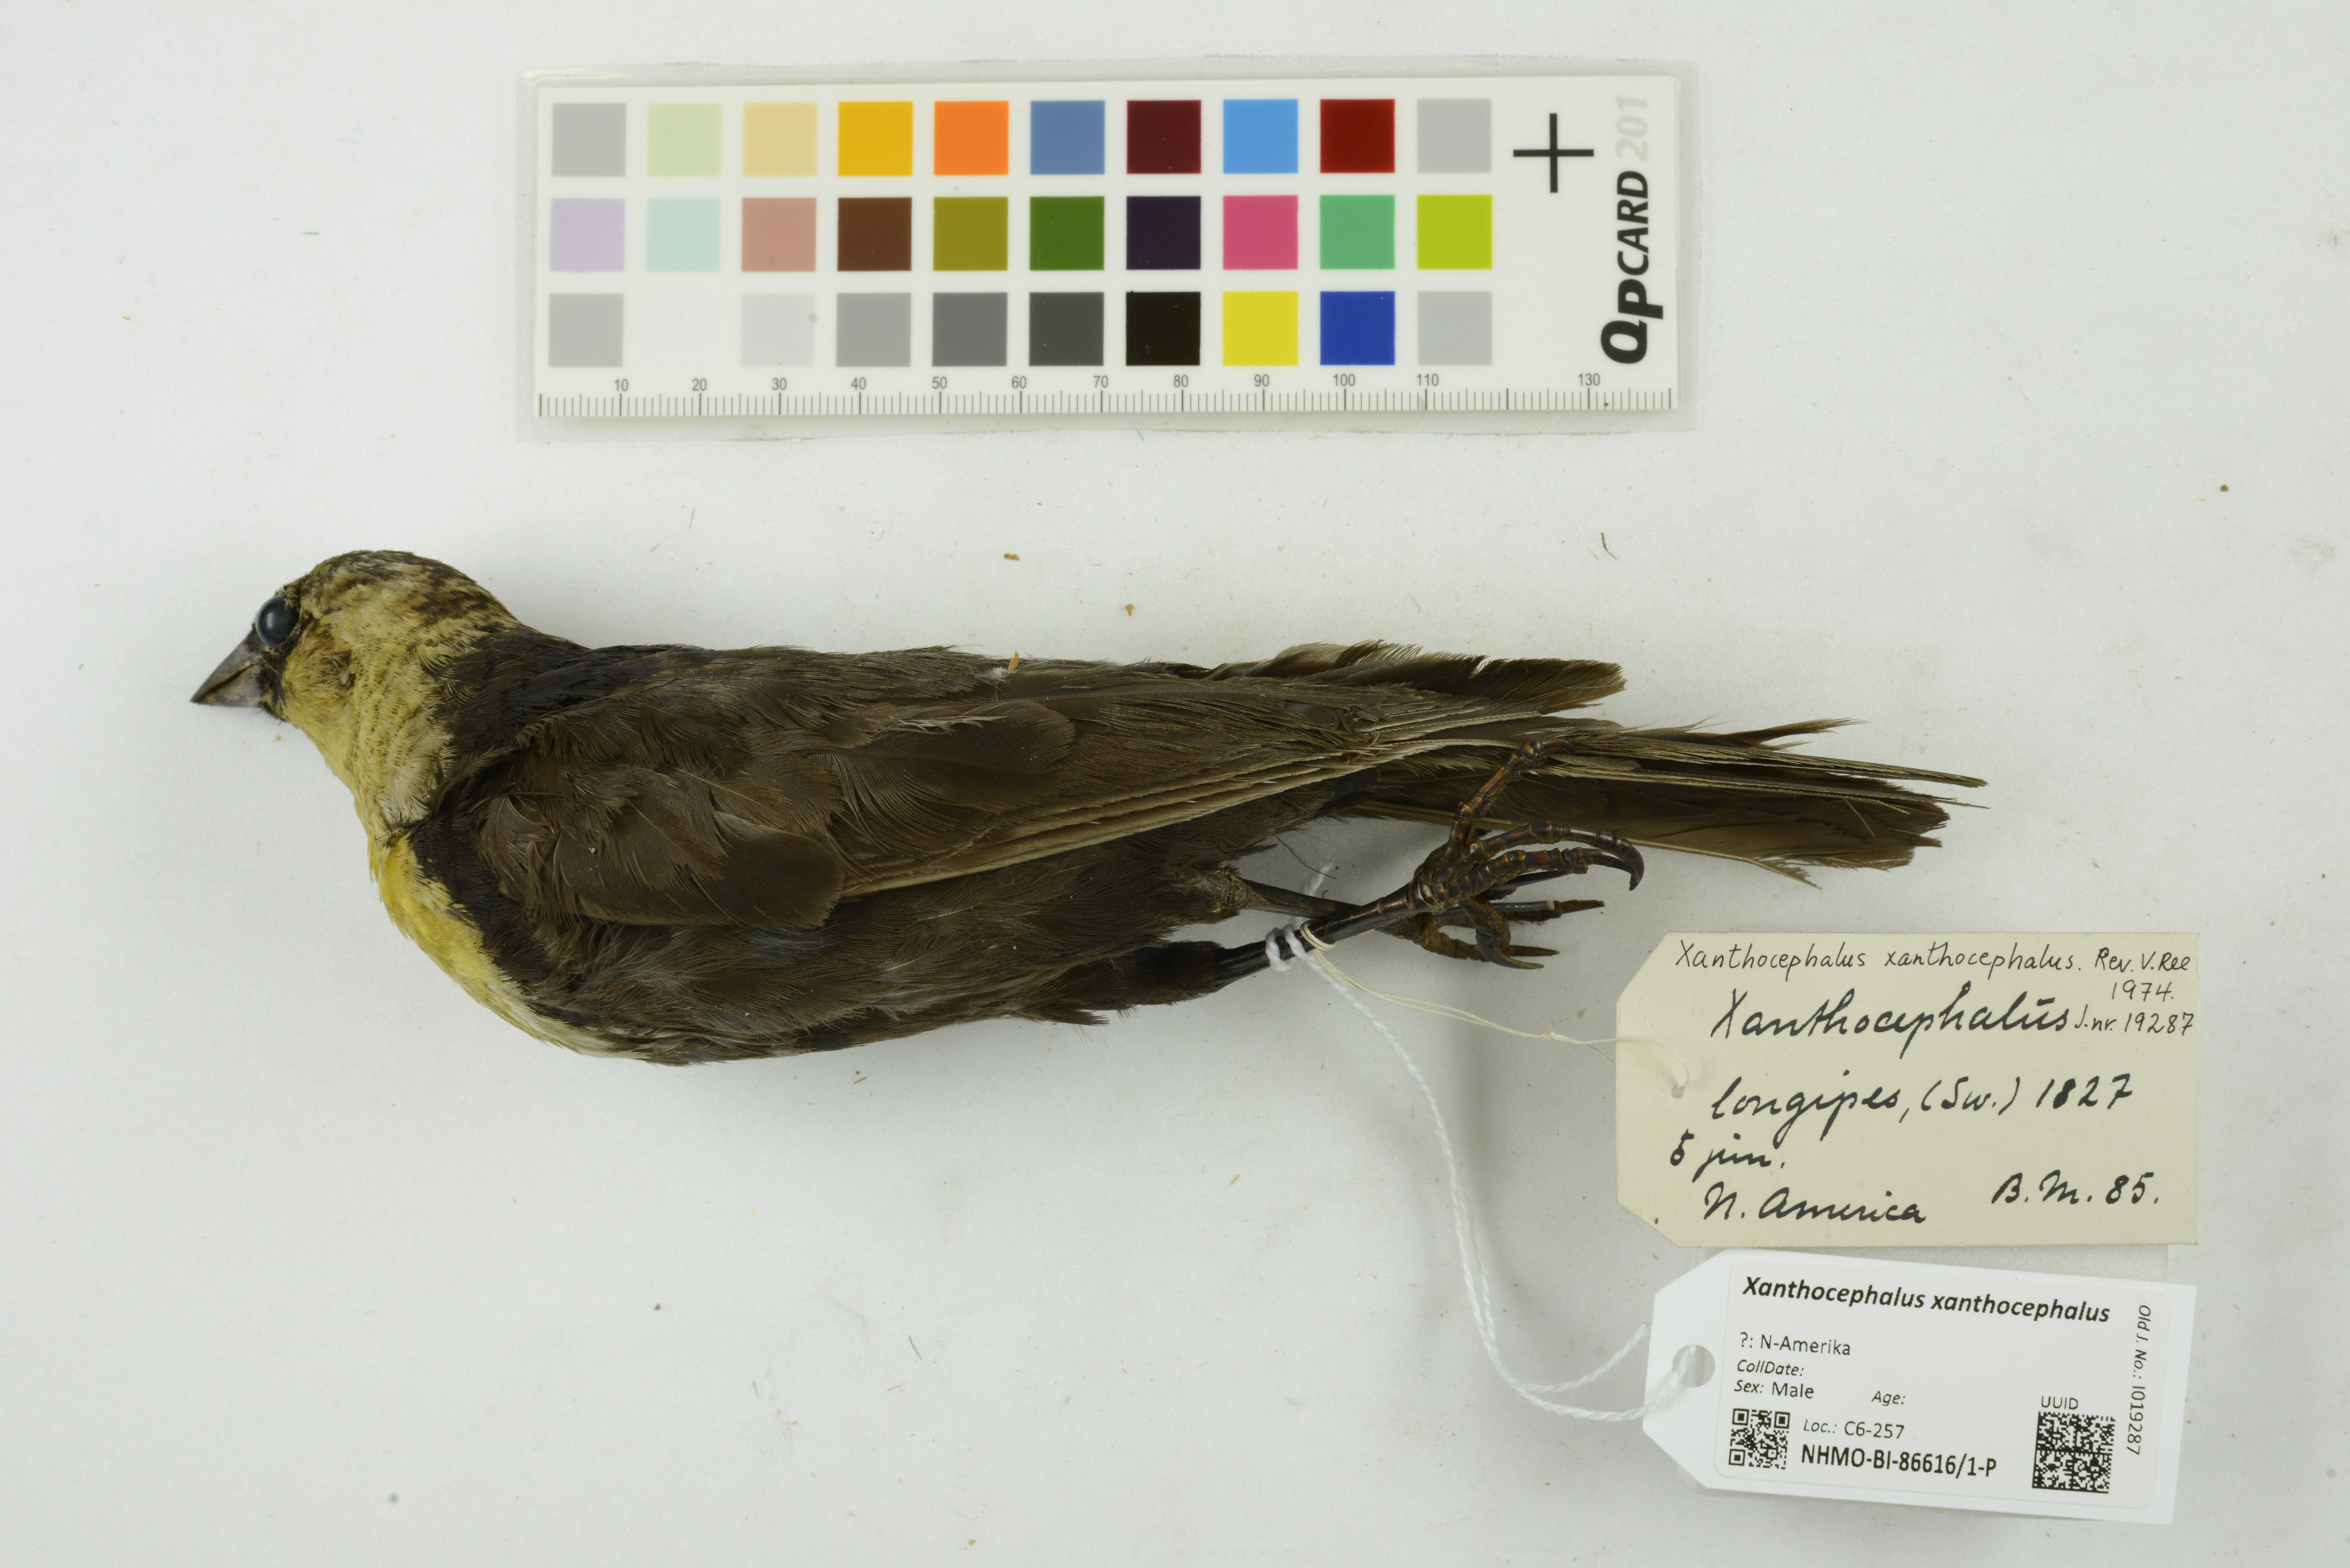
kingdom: Animalia
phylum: Chordata
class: Aves
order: Passeriformes
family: Icteridae
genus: Xanthocephalus
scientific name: Xanthocephalus xanthocephalus
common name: Yellow-headed blackbird
